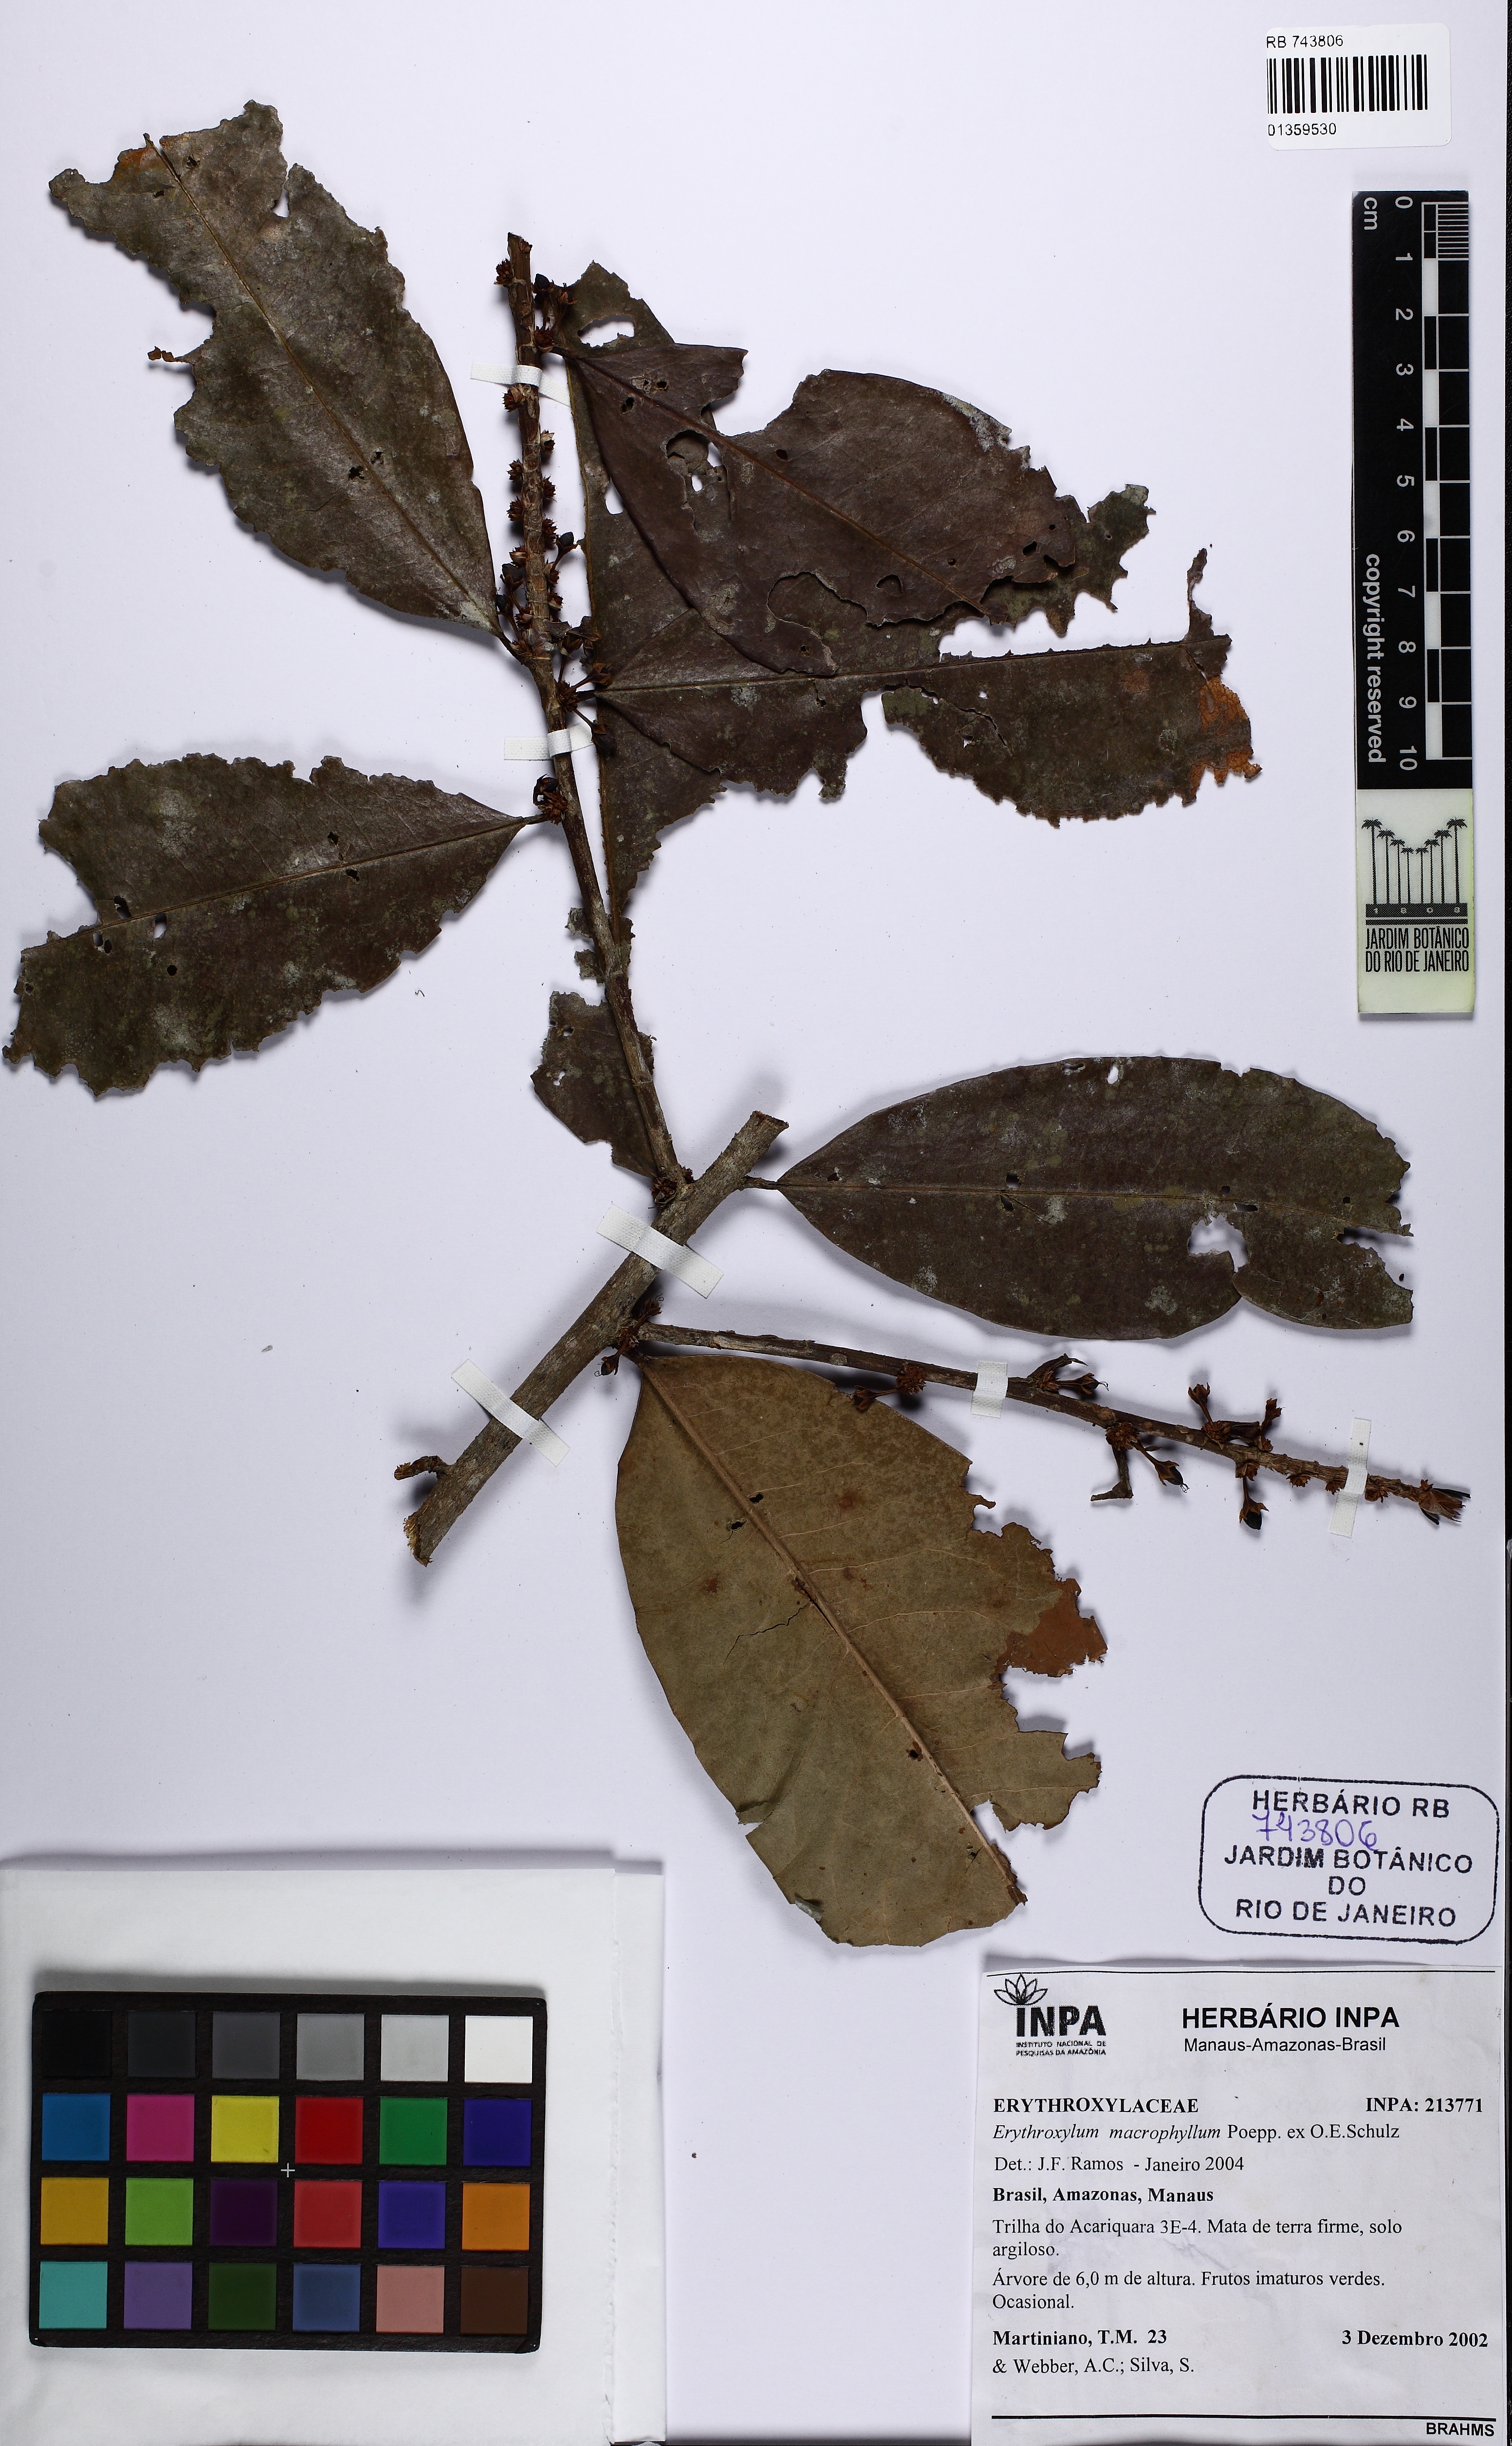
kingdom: Plantae
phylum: Tracheophyta
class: Magnoliopsida
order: Malpighiales
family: Erythroxylaceae
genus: Erythroxylum
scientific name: Erythroxylum macrophyllum
